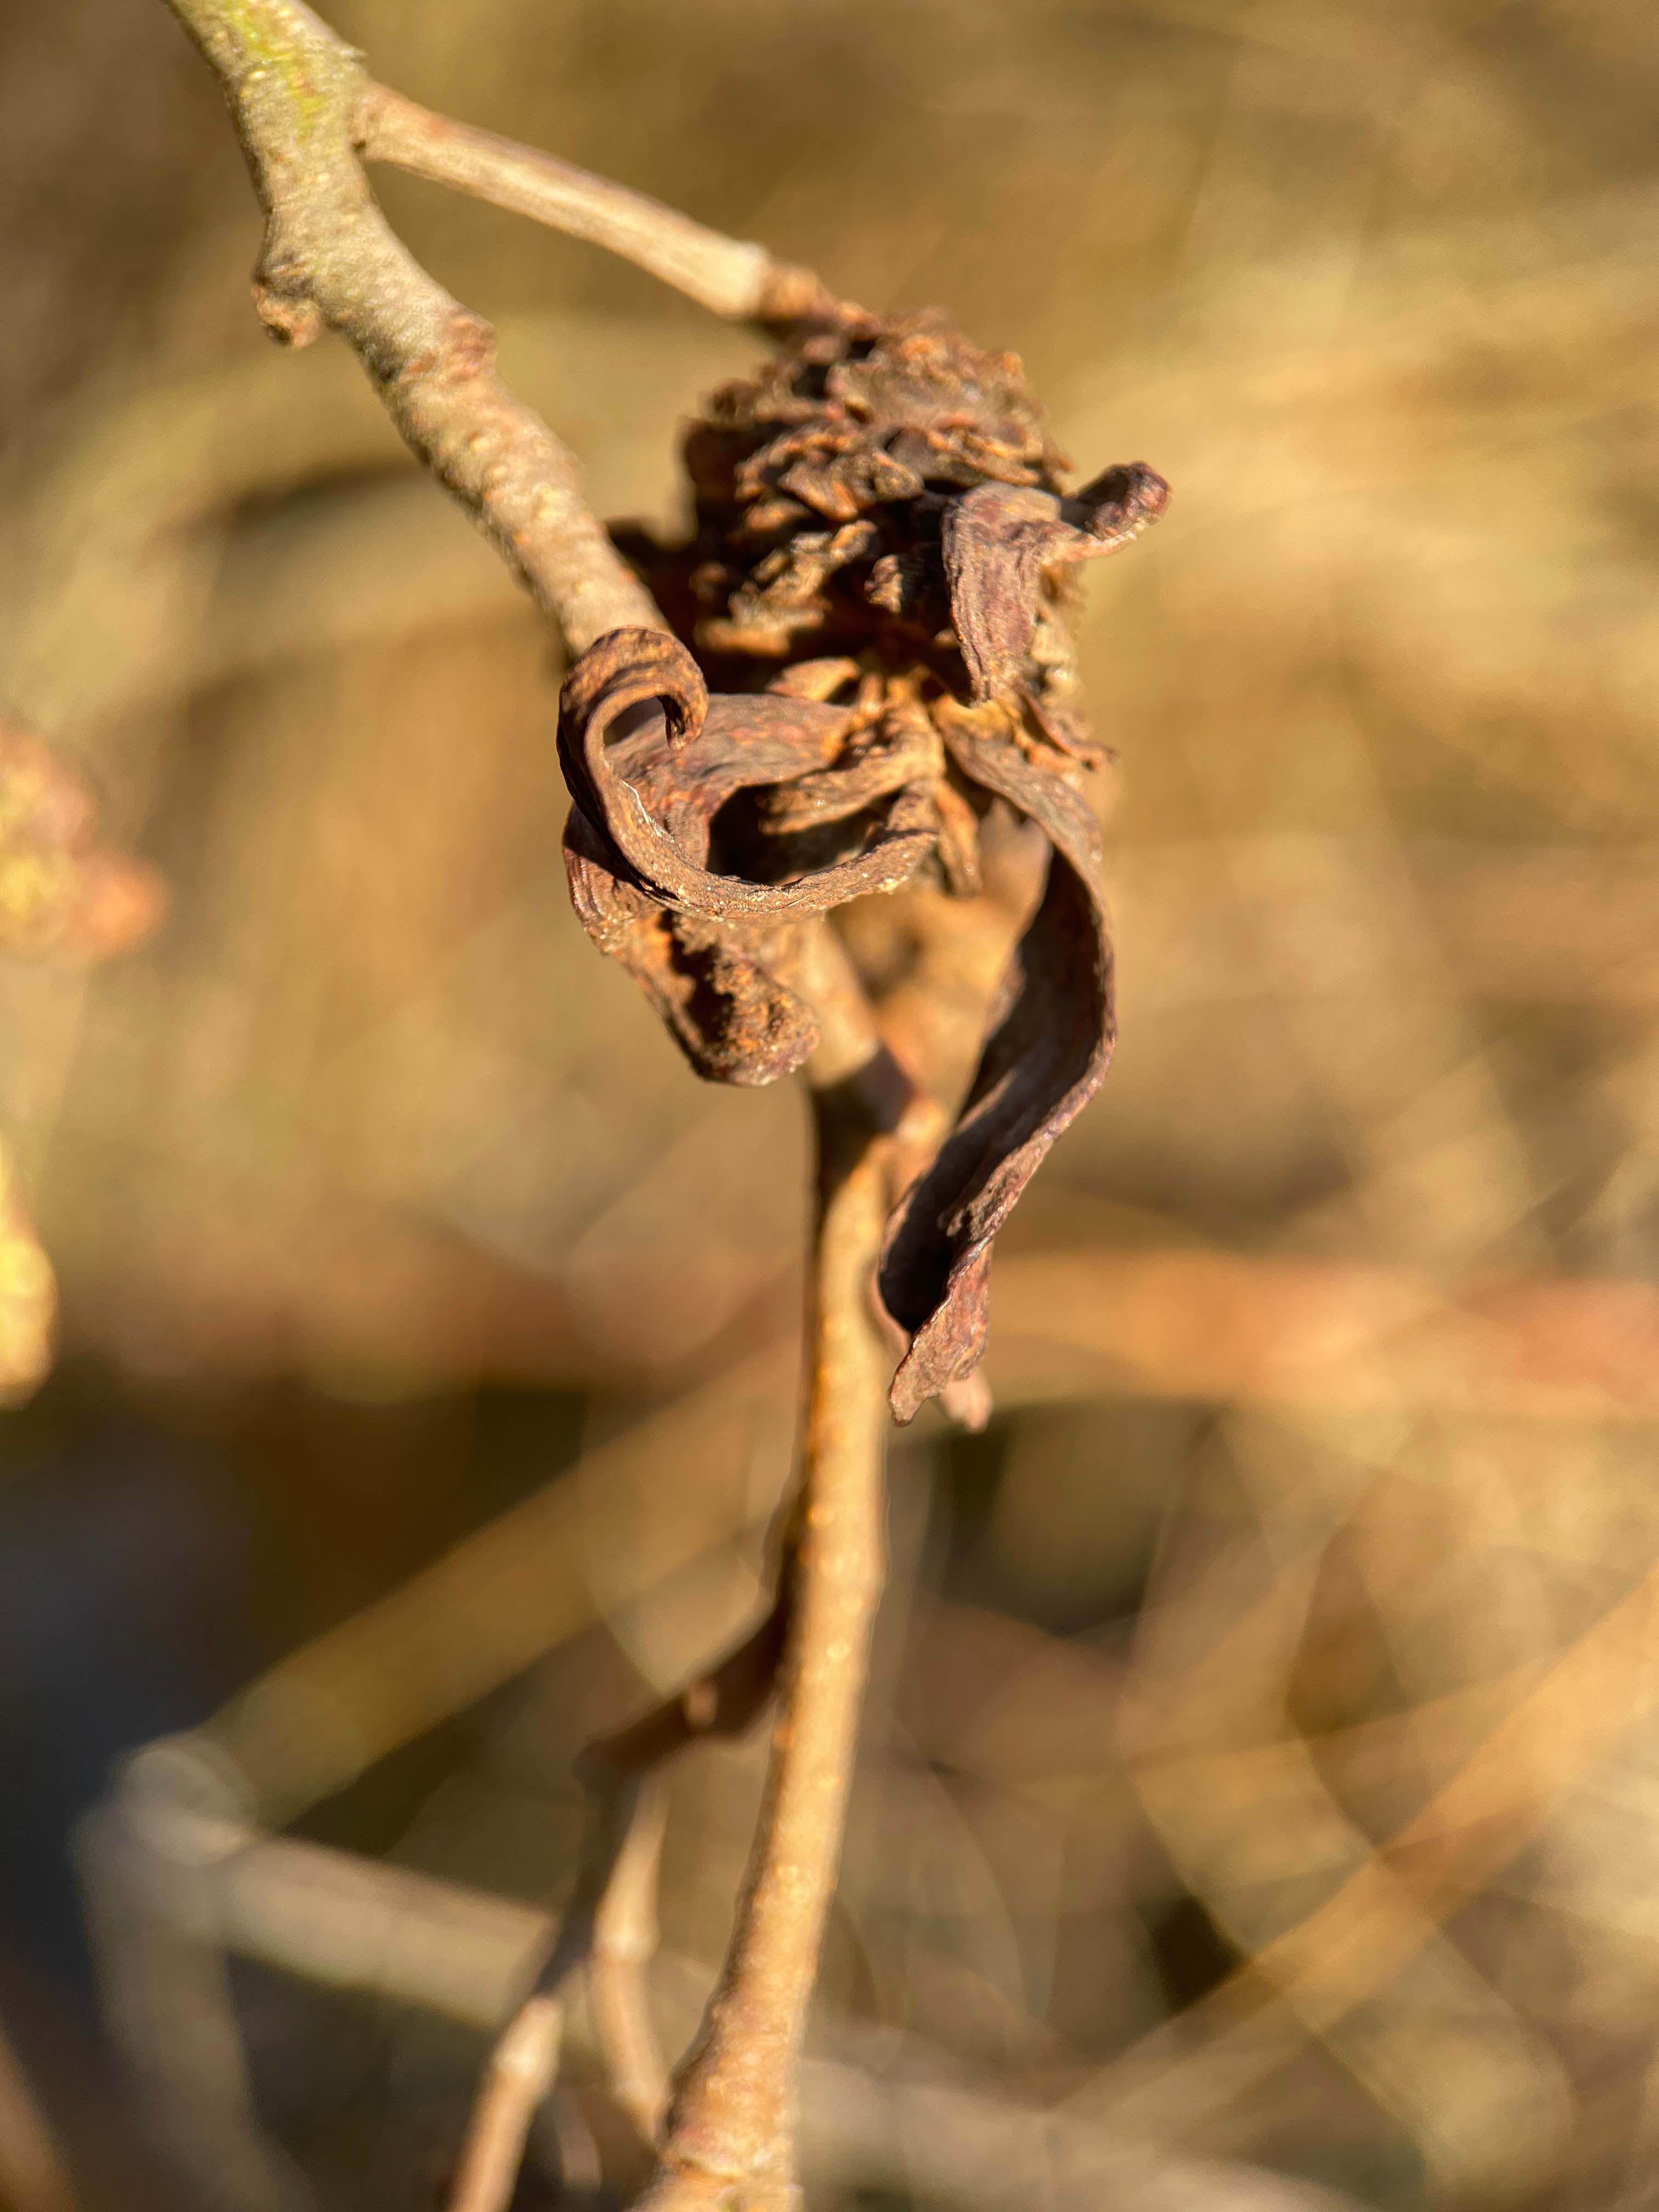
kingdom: Fungi
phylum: Ascomycota
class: Taphrinomycetes
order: Taphrinales
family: Taphrinaceae
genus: Taphrina
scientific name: Taphrina alni
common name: Alder tongue
